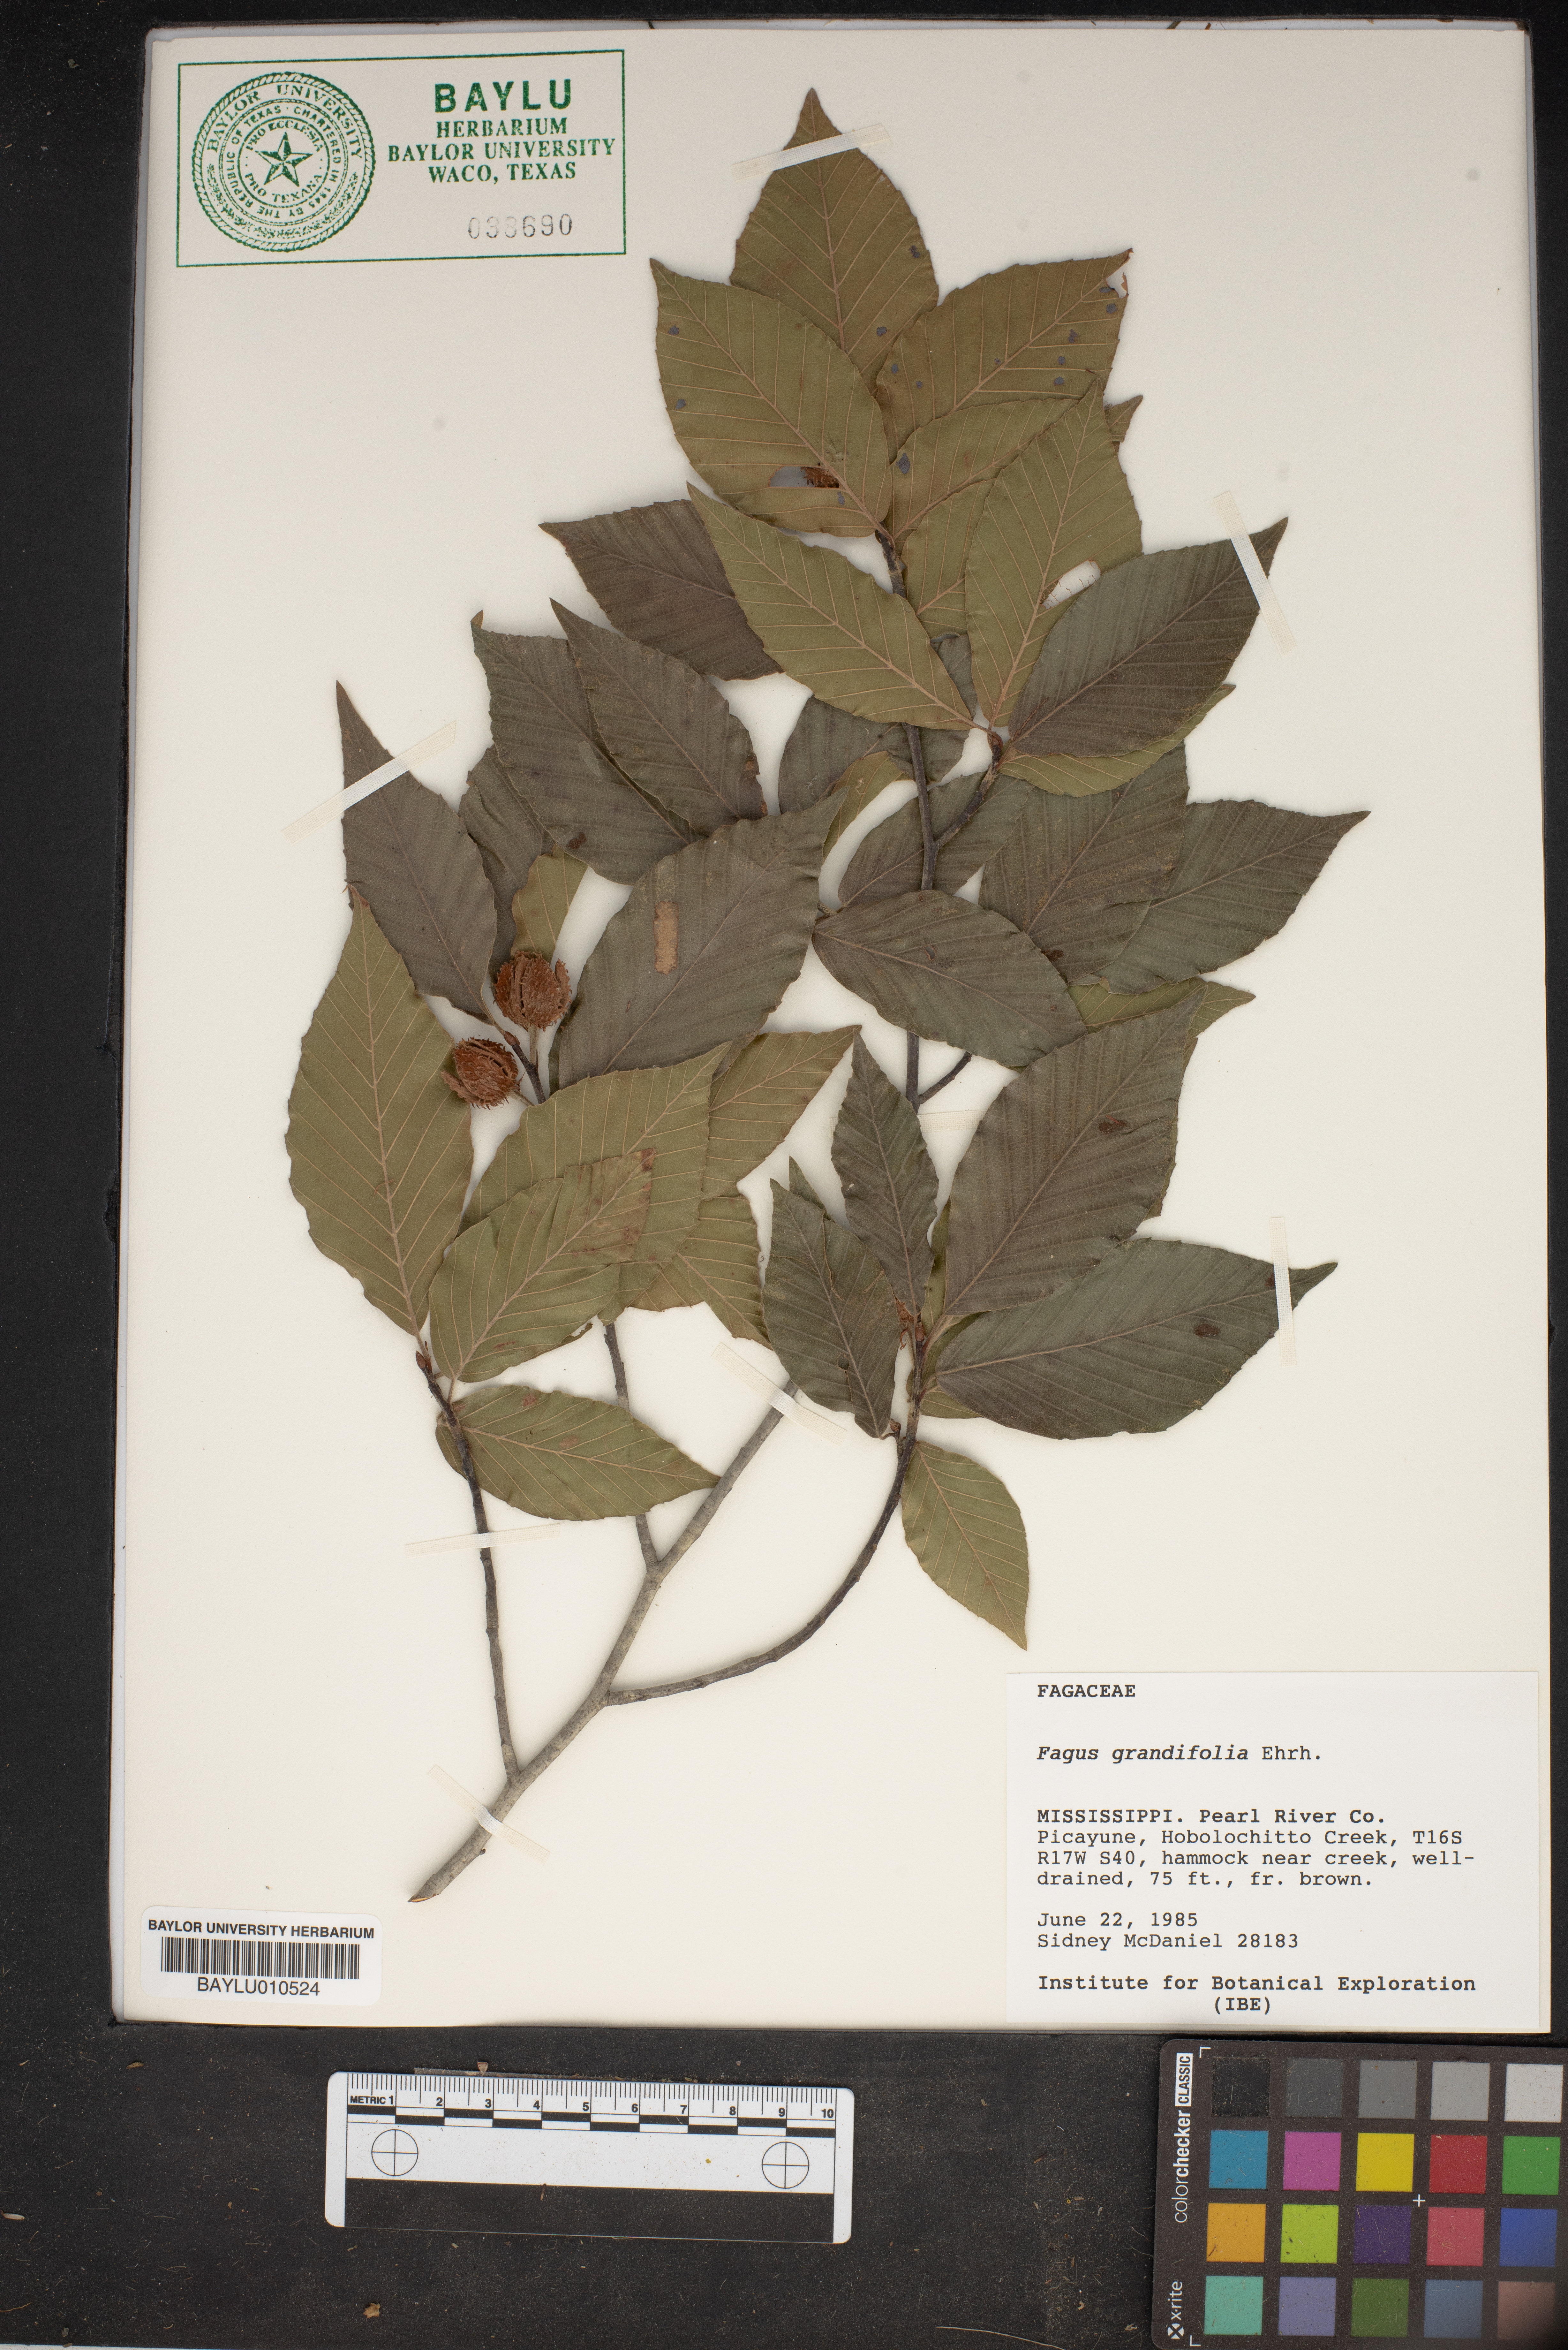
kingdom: Plantae
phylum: Tracheophyta
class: Magnoliopsida
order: Fagales
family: Fagaceae
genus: Fagus
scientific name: Fagus grandifolia
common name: American beech
